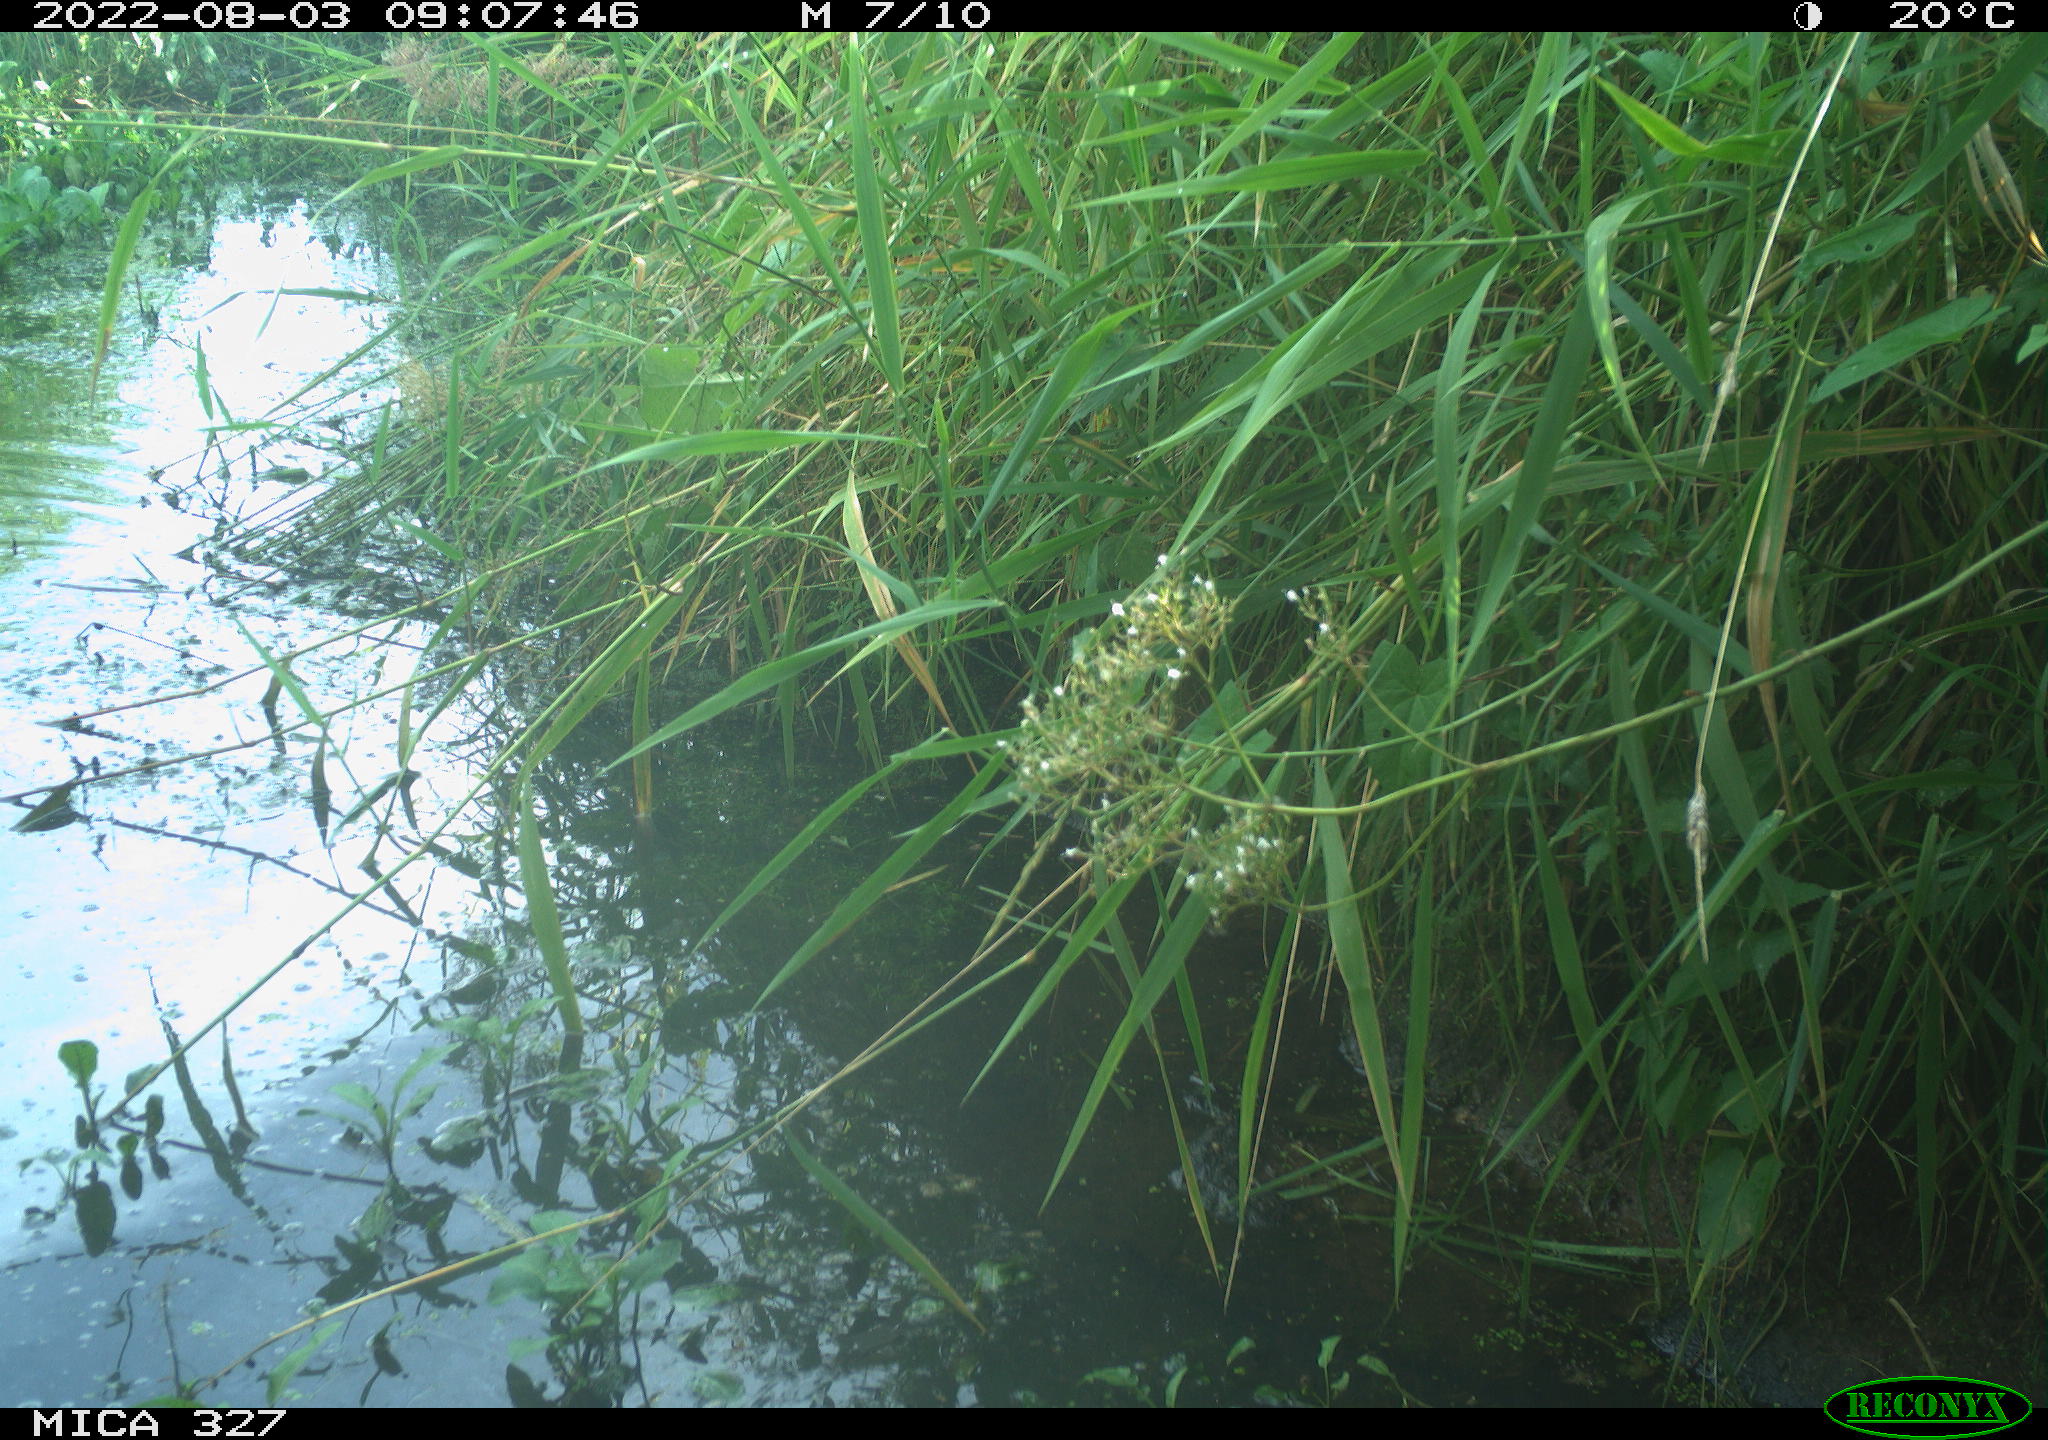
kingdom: Animalia
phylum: Chordata
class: Aves
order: Gruiformes
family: Rallidae
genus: Gallinula
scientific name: Gallinula chloropus
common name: Common moorhen
